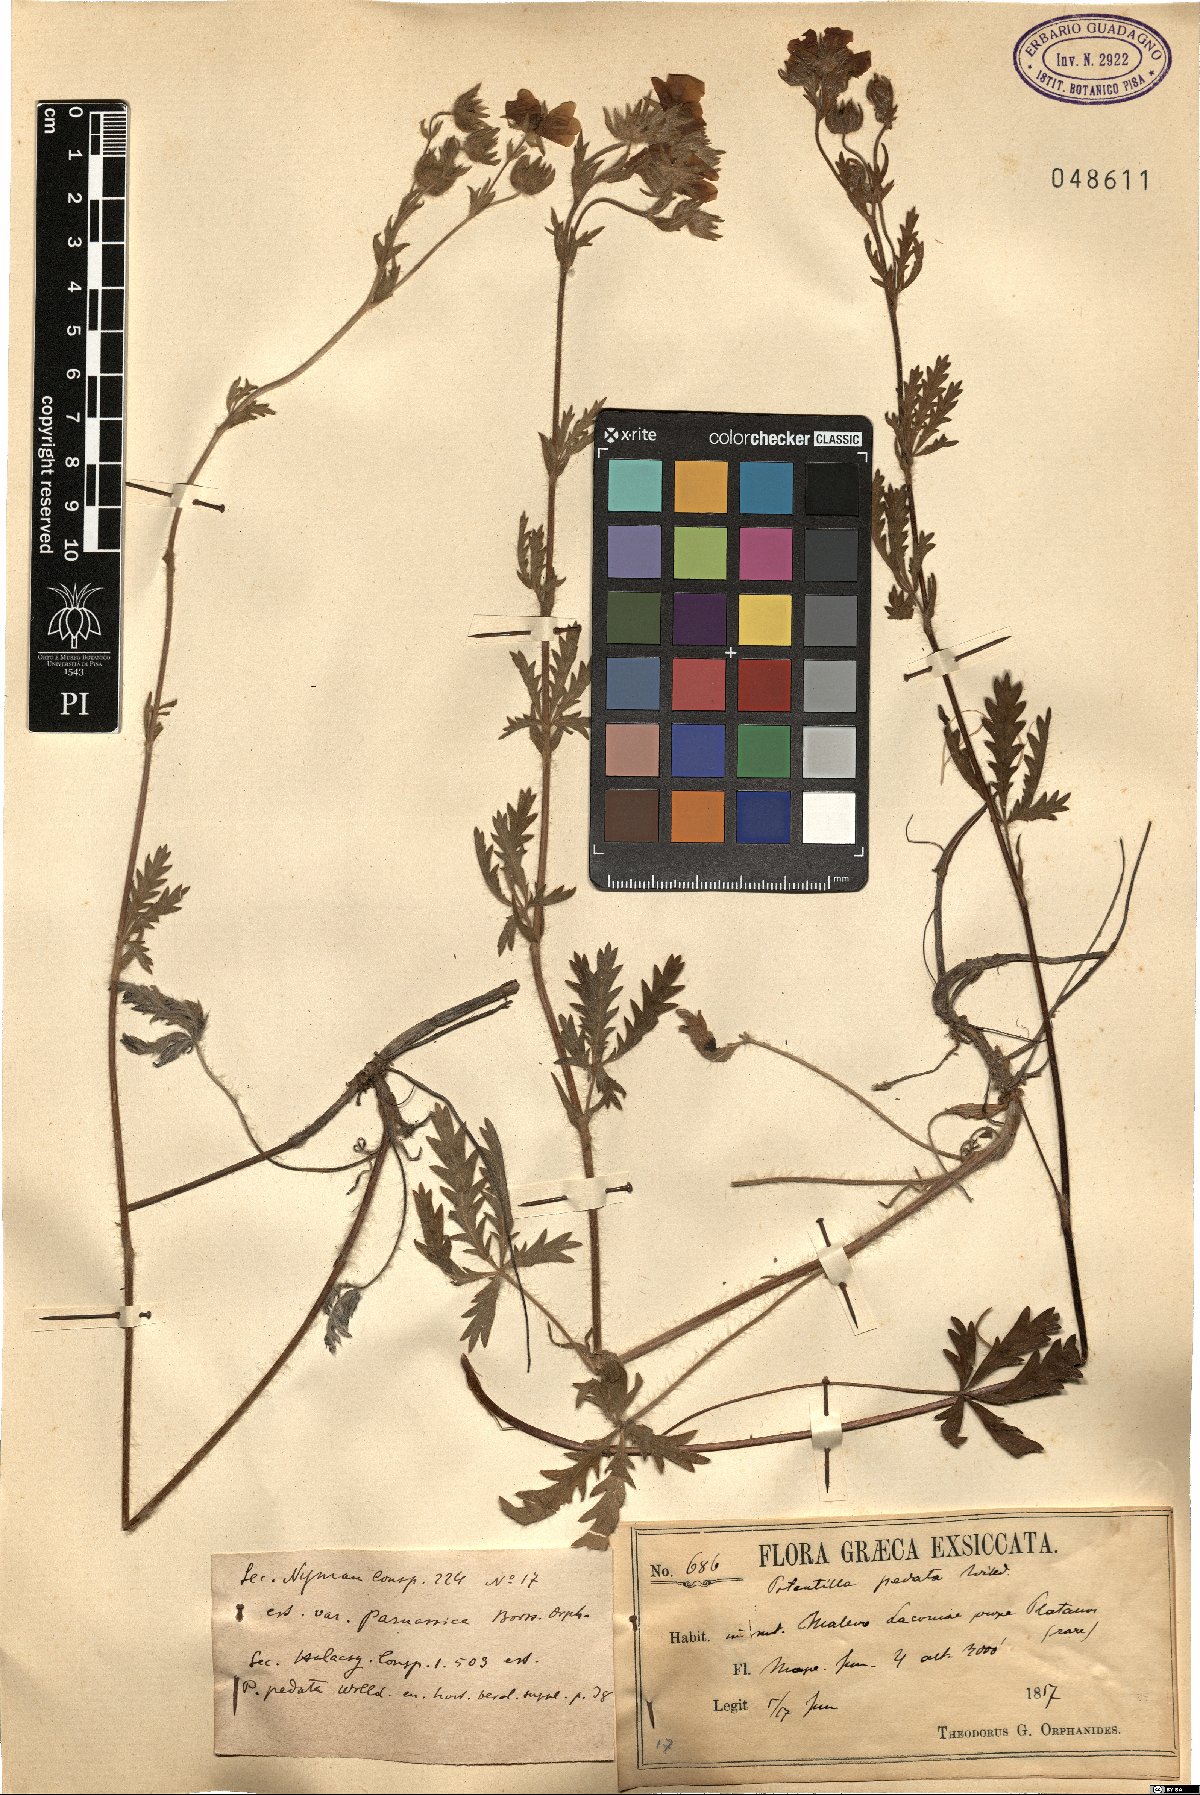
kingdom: Plantae
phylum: Tracheophyta
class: Magnoliopsida
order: Rosales
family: Rosaceae
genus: Potentilla
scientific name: Potentilla pedata
